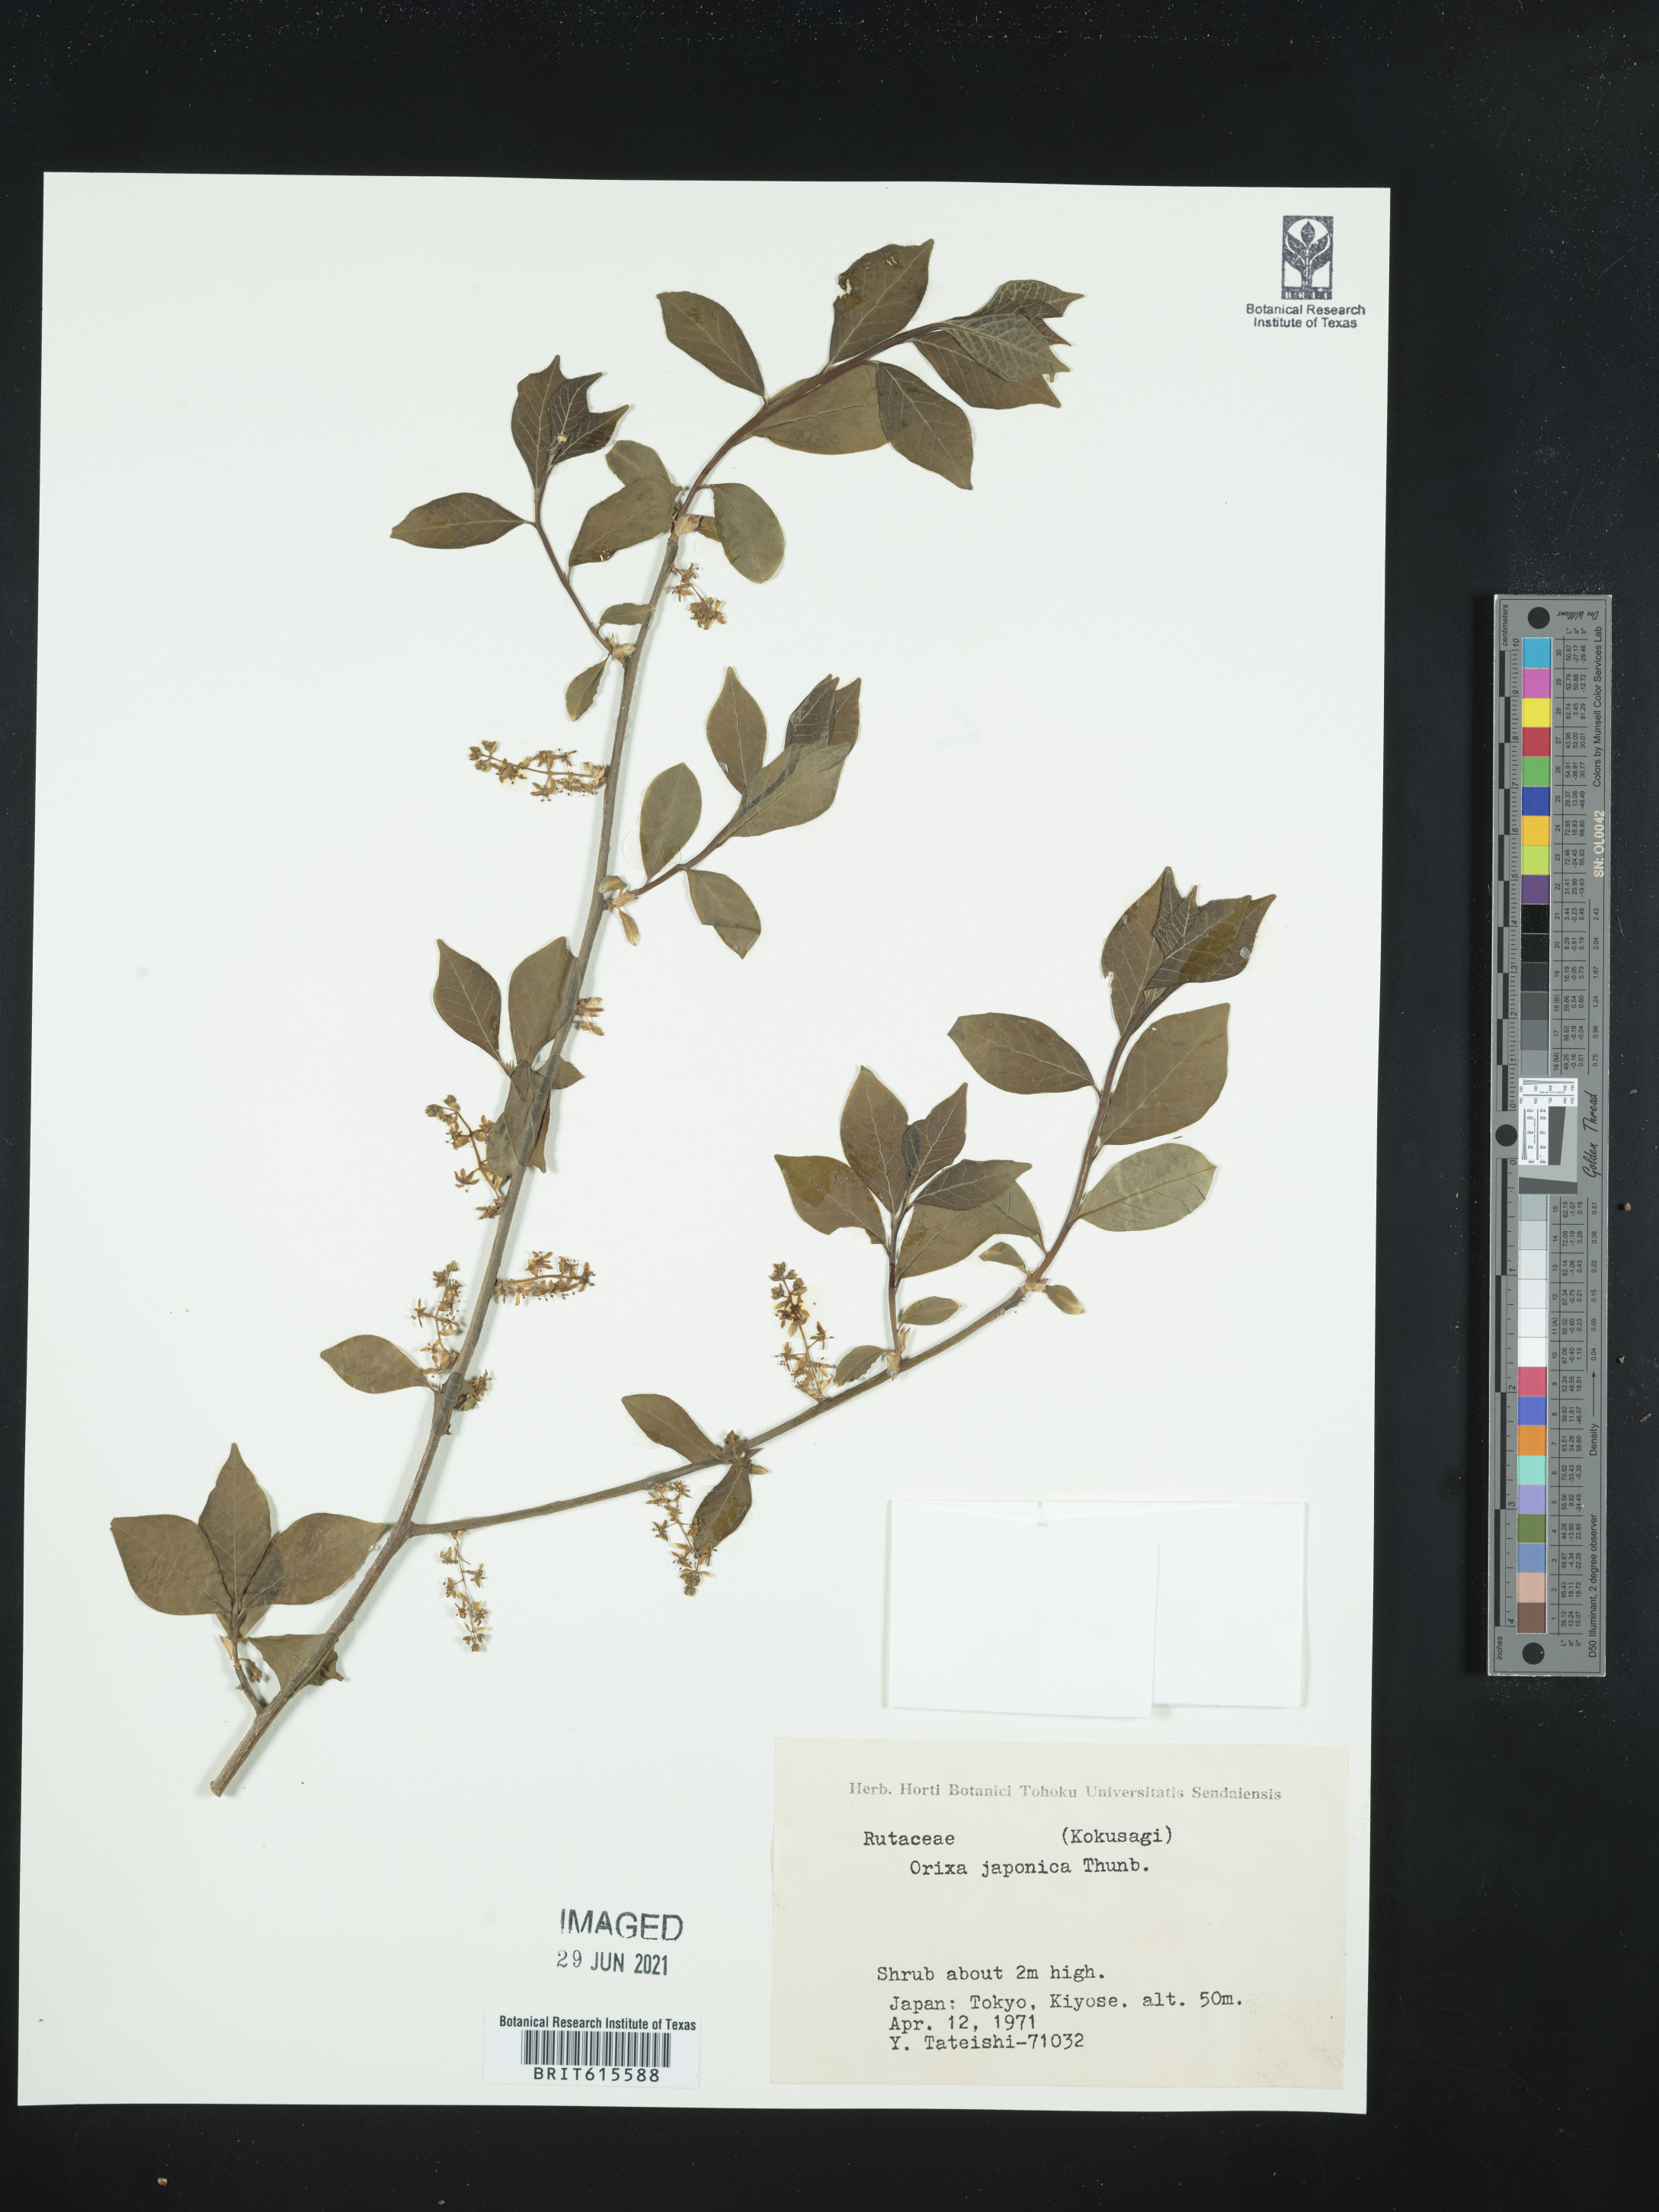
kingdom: Plantae
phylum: Tracheophyta
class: Magnoliopsida
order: Sapindales
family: Rutaceae
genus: Orixa
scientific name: Orixa japonica
